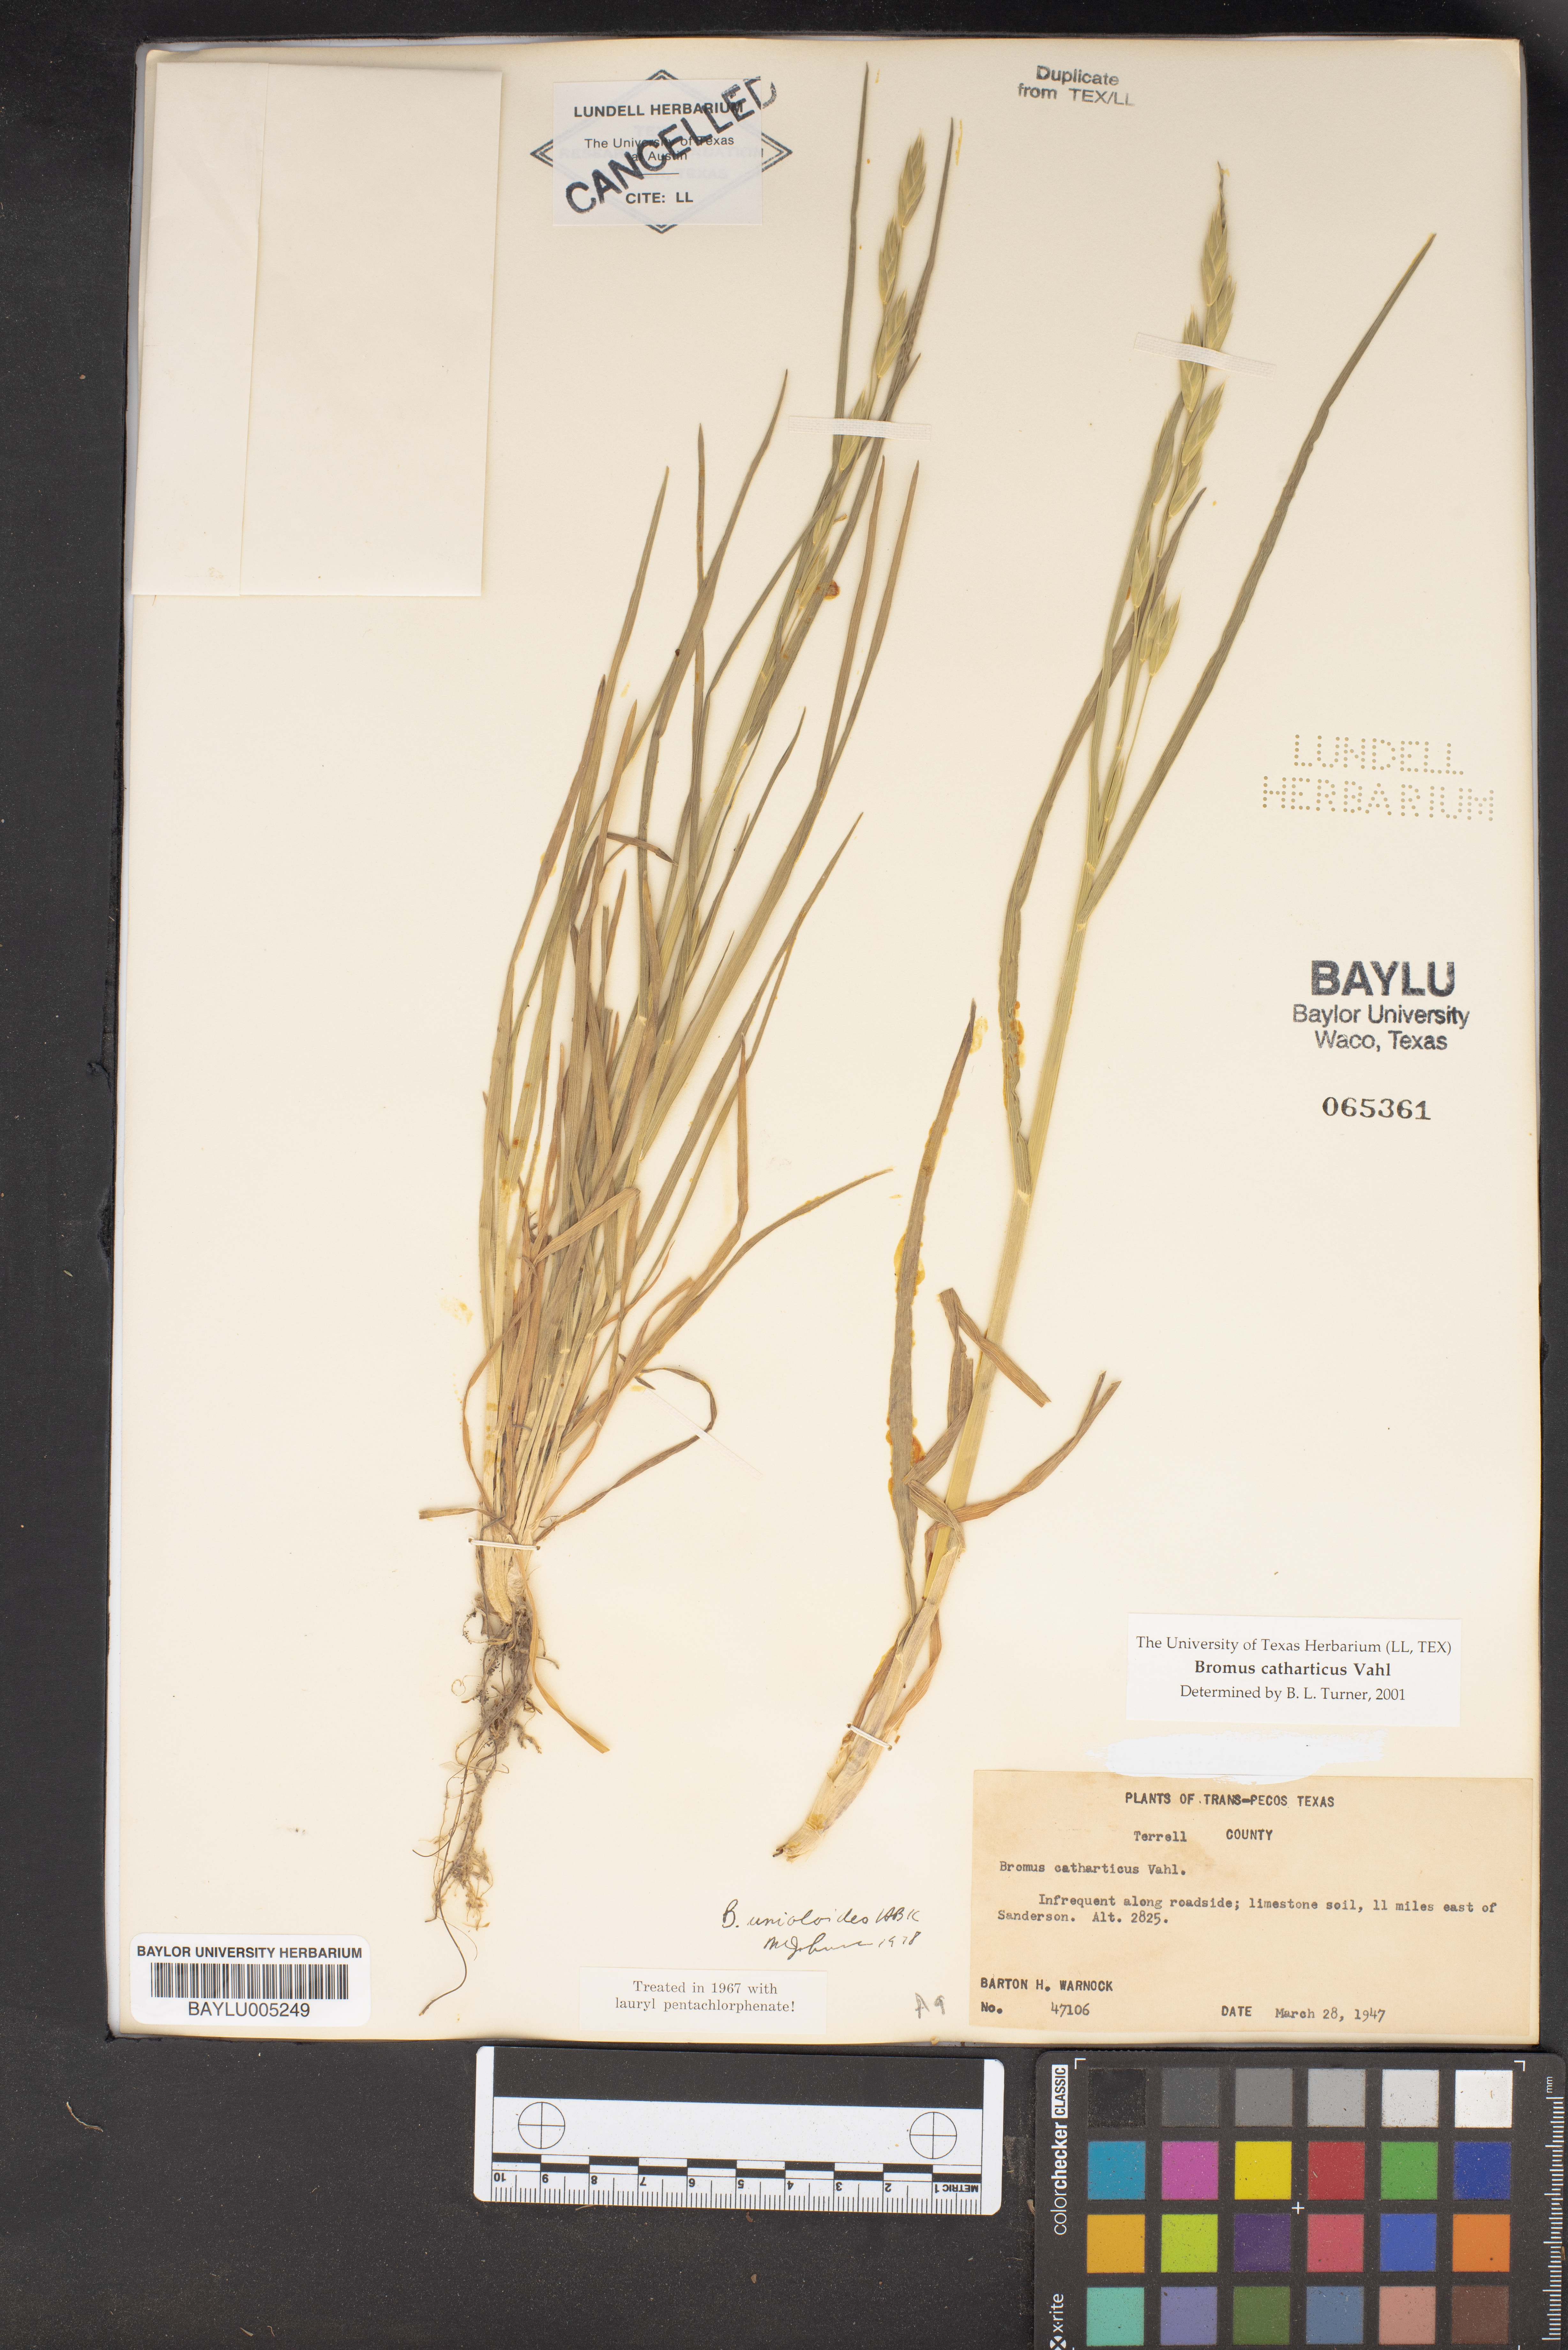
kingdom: Plantae
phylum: Tracheophyta
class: Liliopsida
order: Poales
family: Poaceae
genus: Bromus
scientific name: Bromus catharticus
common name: Rescuegrass
